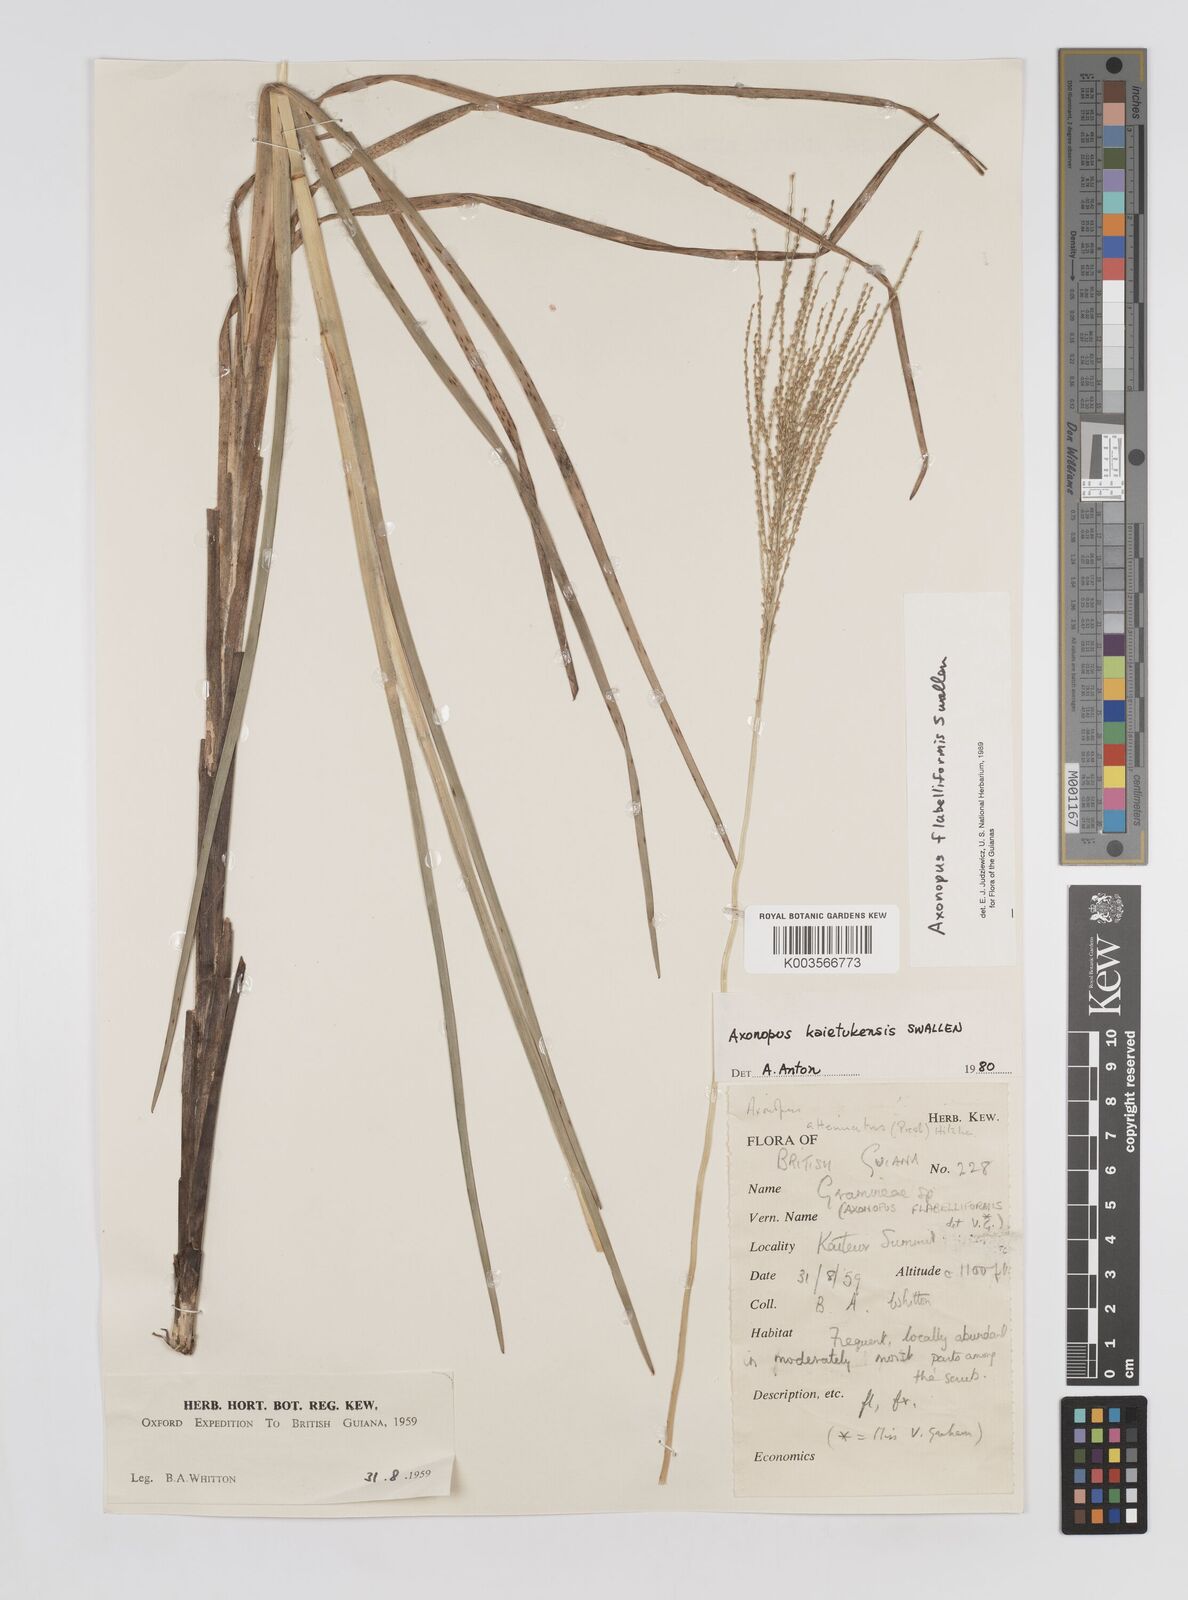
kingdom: Plantae
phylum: Tracheophyta
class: Liliopsida
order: Poales
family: Poaceae
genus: Axonopus
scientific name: Axonopus flabelliformis
